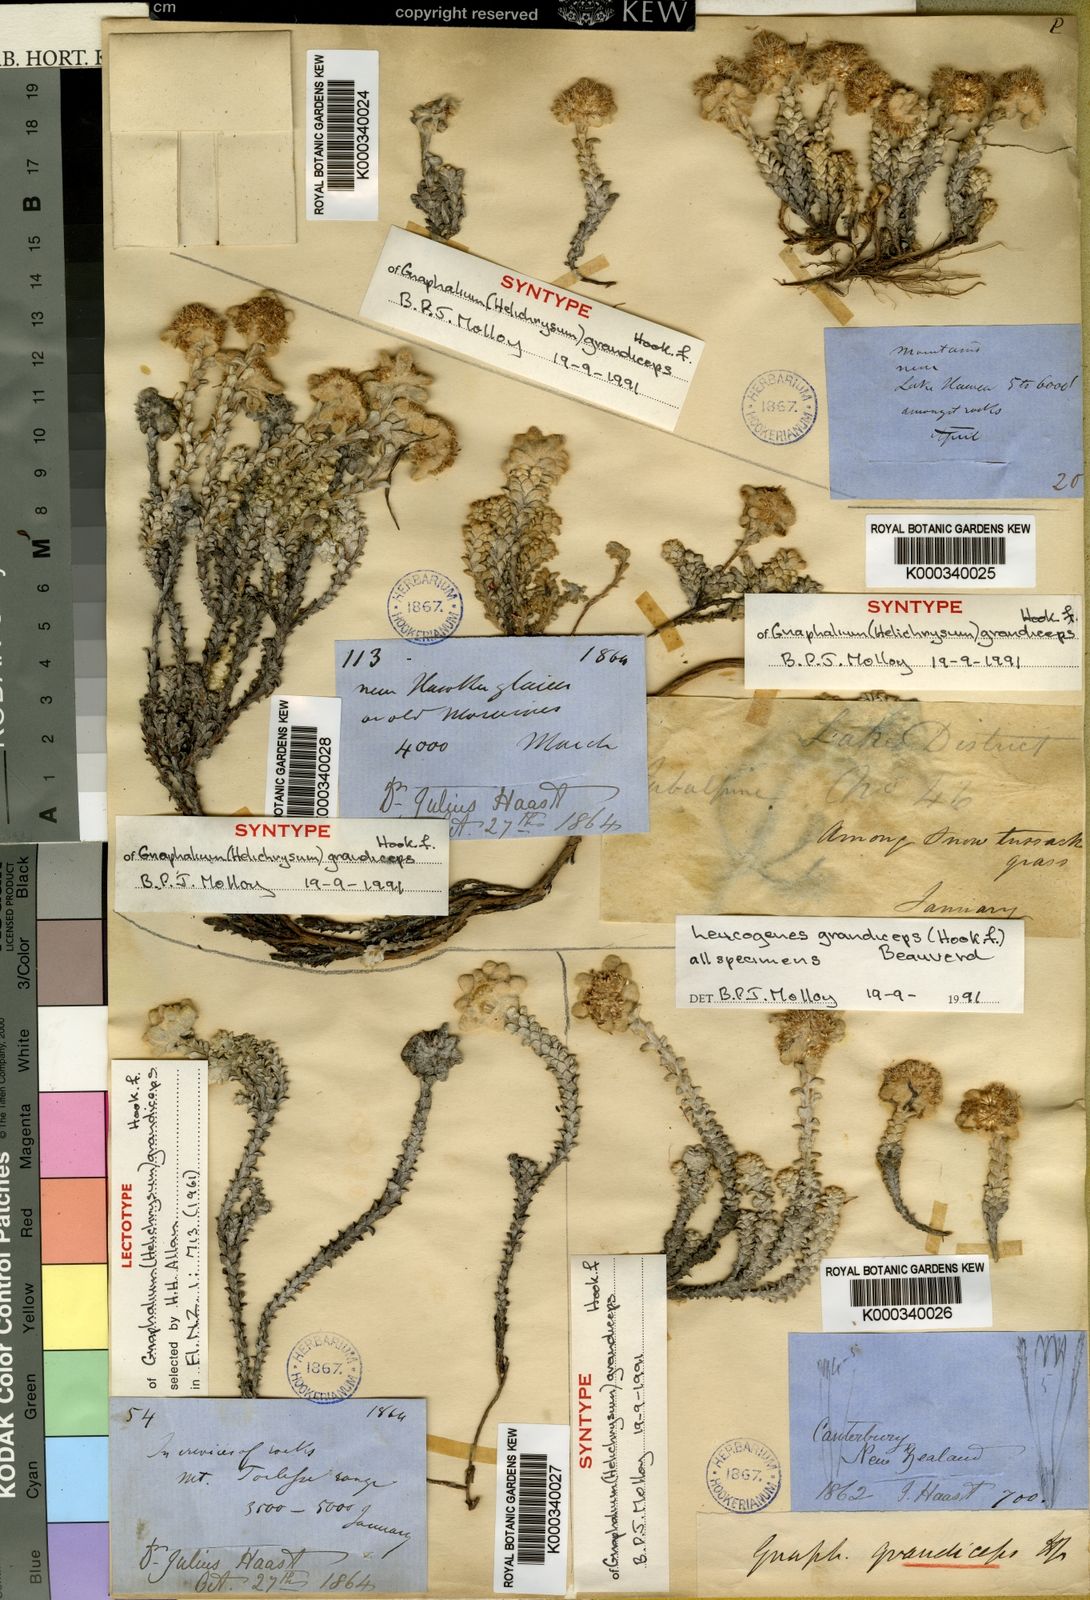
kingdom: Plantae
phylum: Tracheophyta
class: Magnoliopsida
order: Asterales
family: Asteraceae
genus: Leucogenes
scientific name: Leucogenes grandiceps
